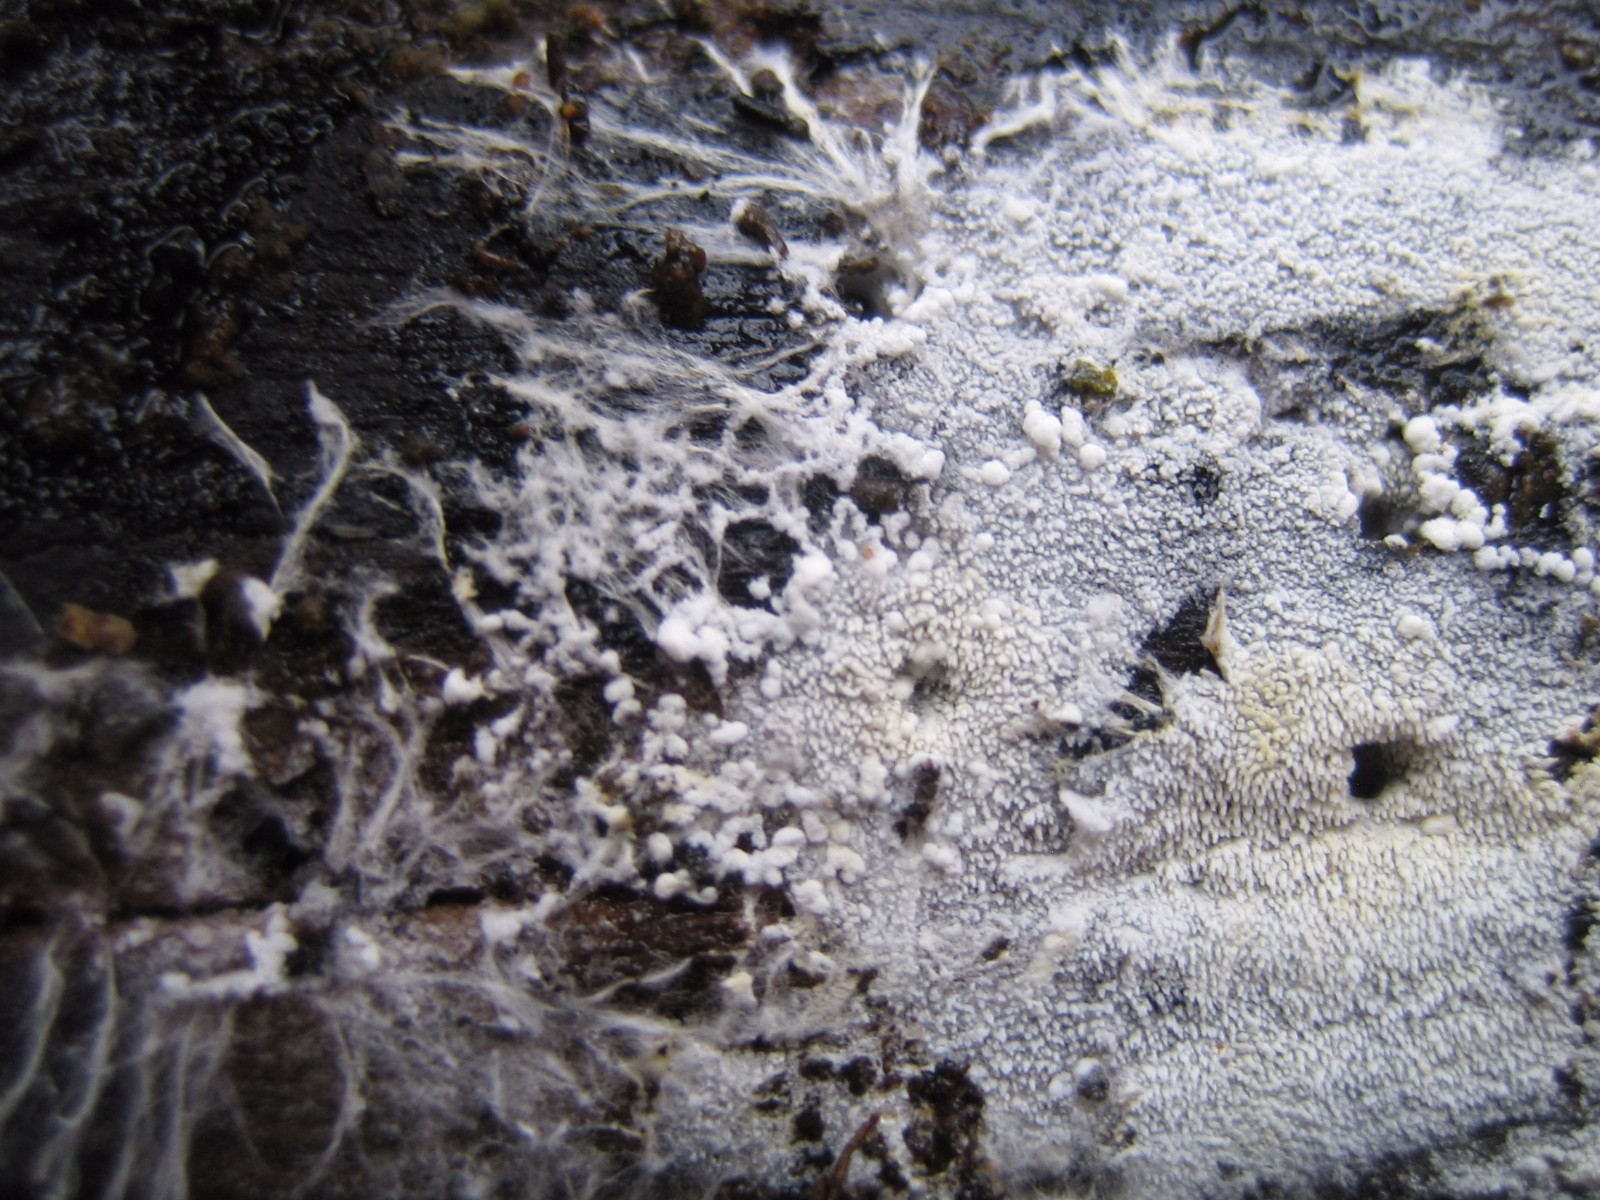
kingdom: Fungi
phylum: Basidiomycota
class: Agaricomycetes
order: Trechisporales
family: Sistotremataceae
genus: Trechispora
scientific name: Trechispora stevensonii
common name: støvende vathinde
